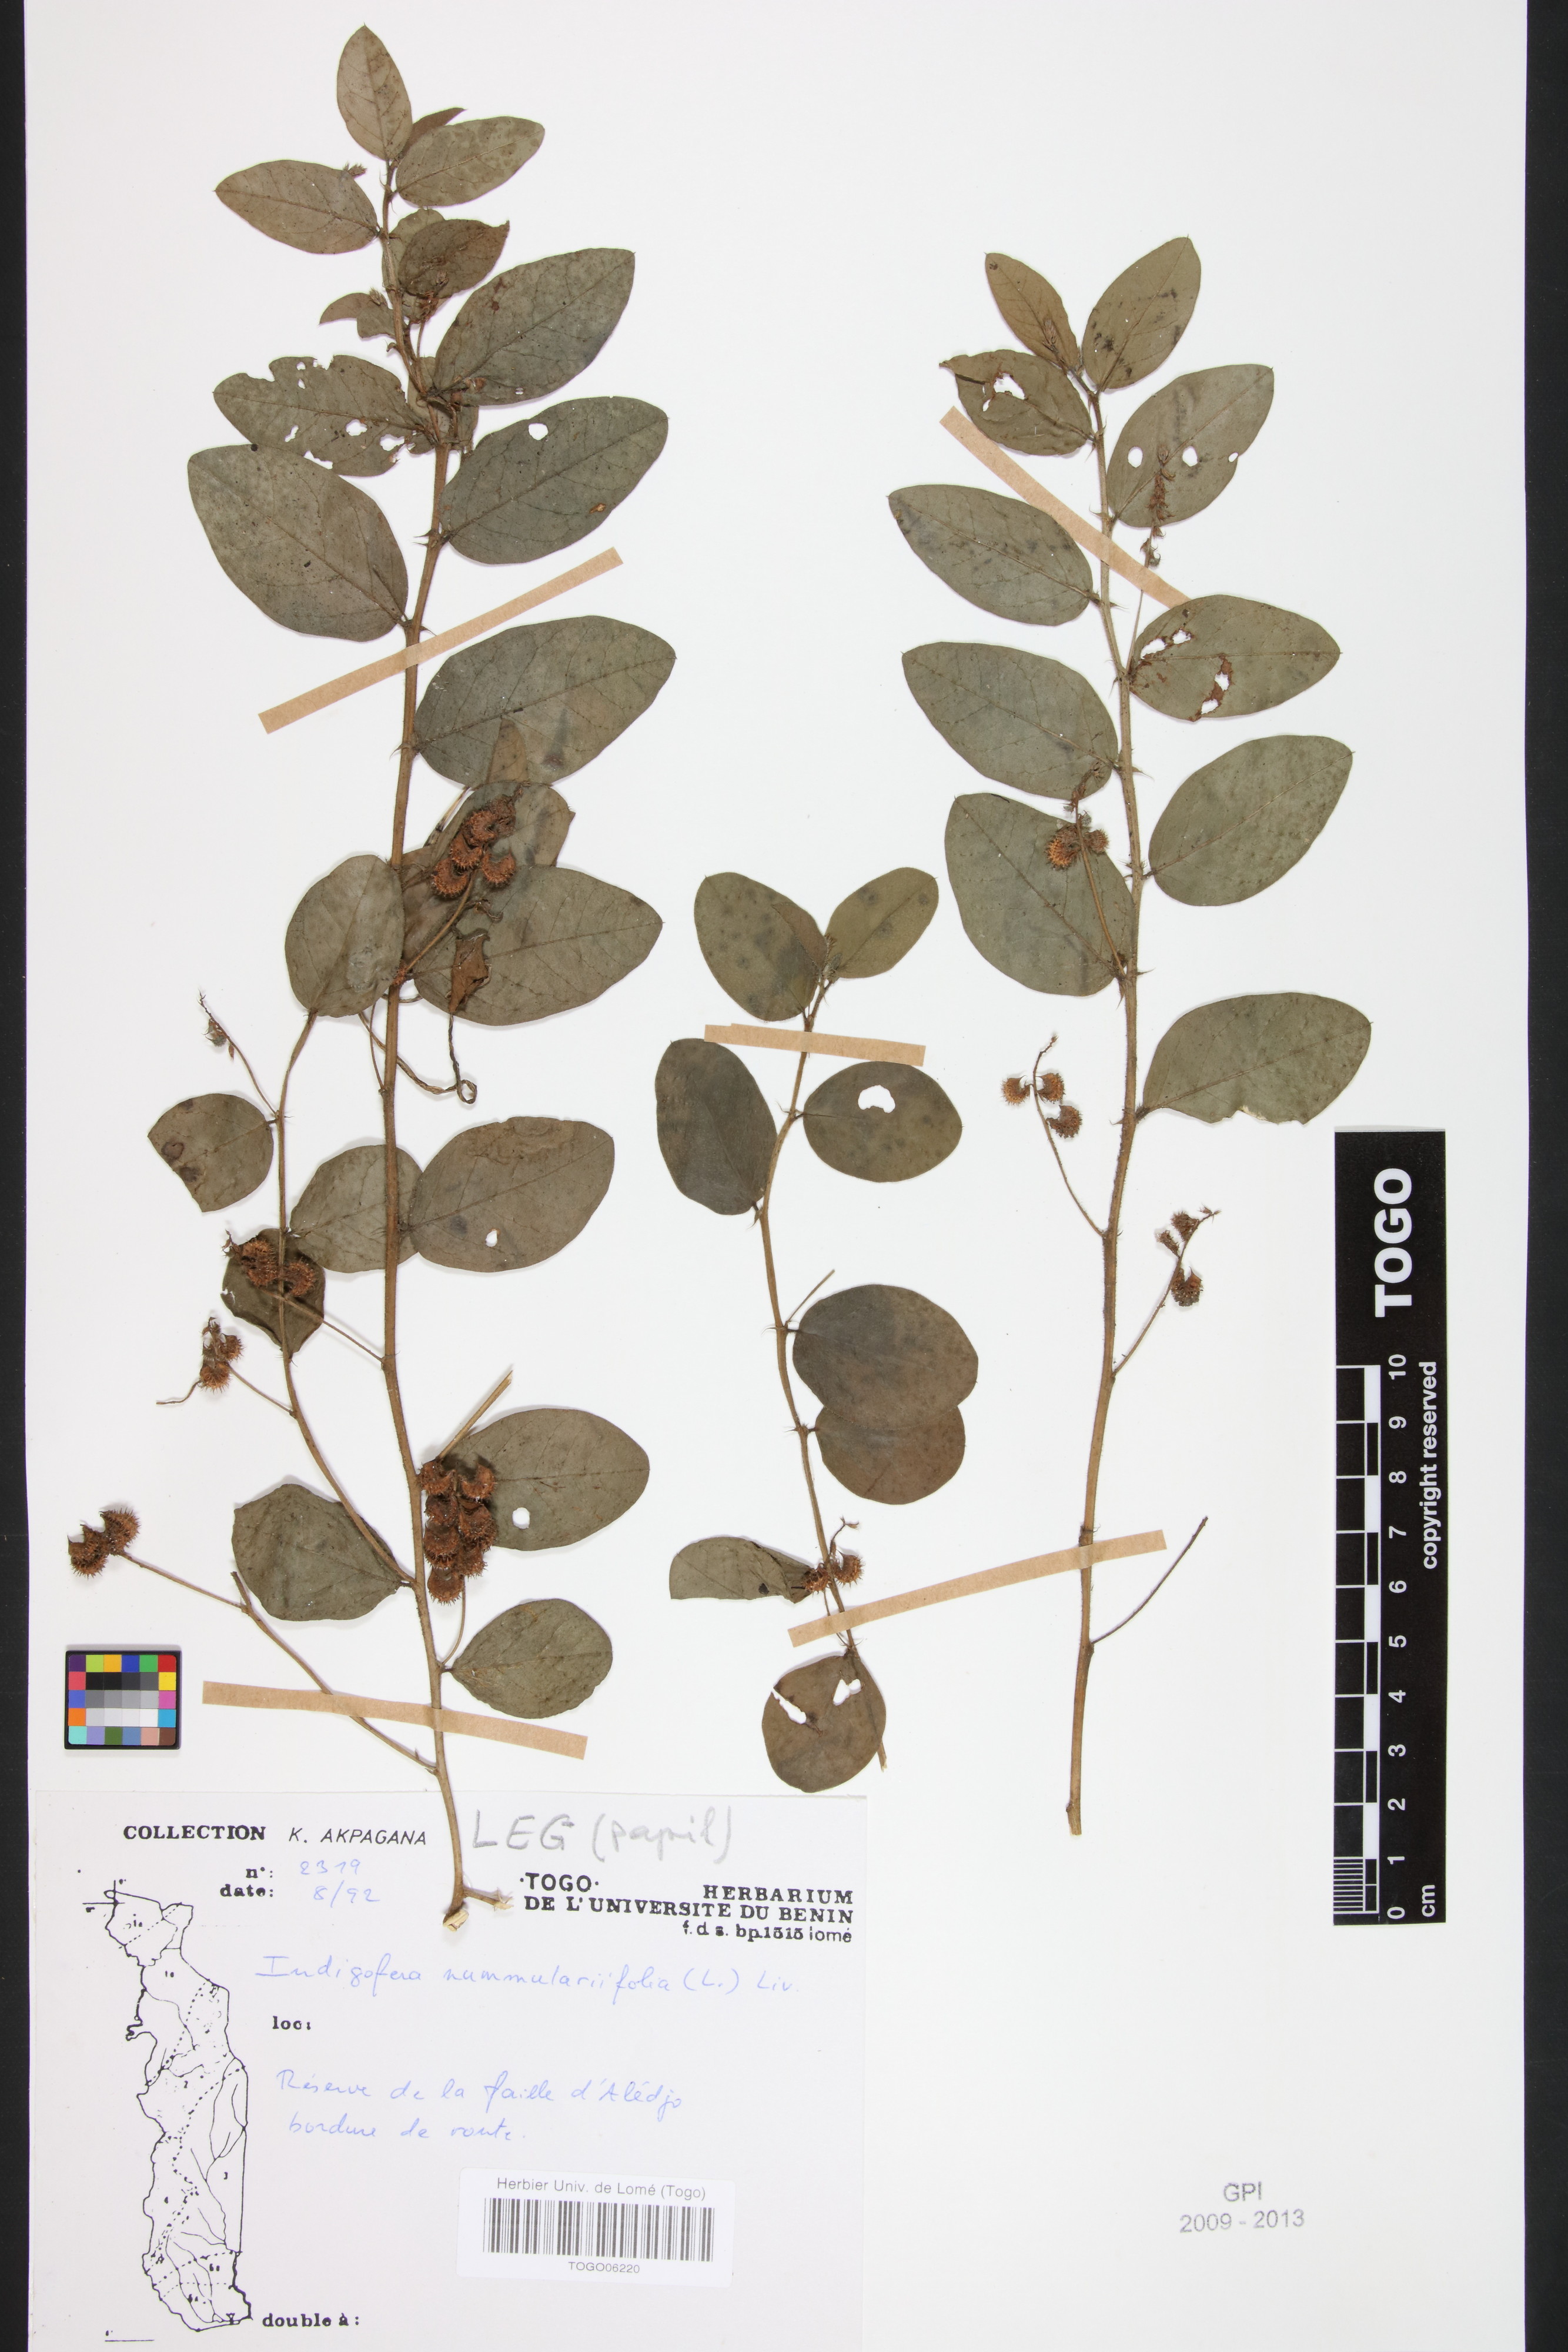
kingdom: Plantae
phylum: Tracheophyta
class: Magnoliopsida
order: Fabales
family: Fabaceae
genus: Indigofera
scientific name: Indigofera nummulariifolia
